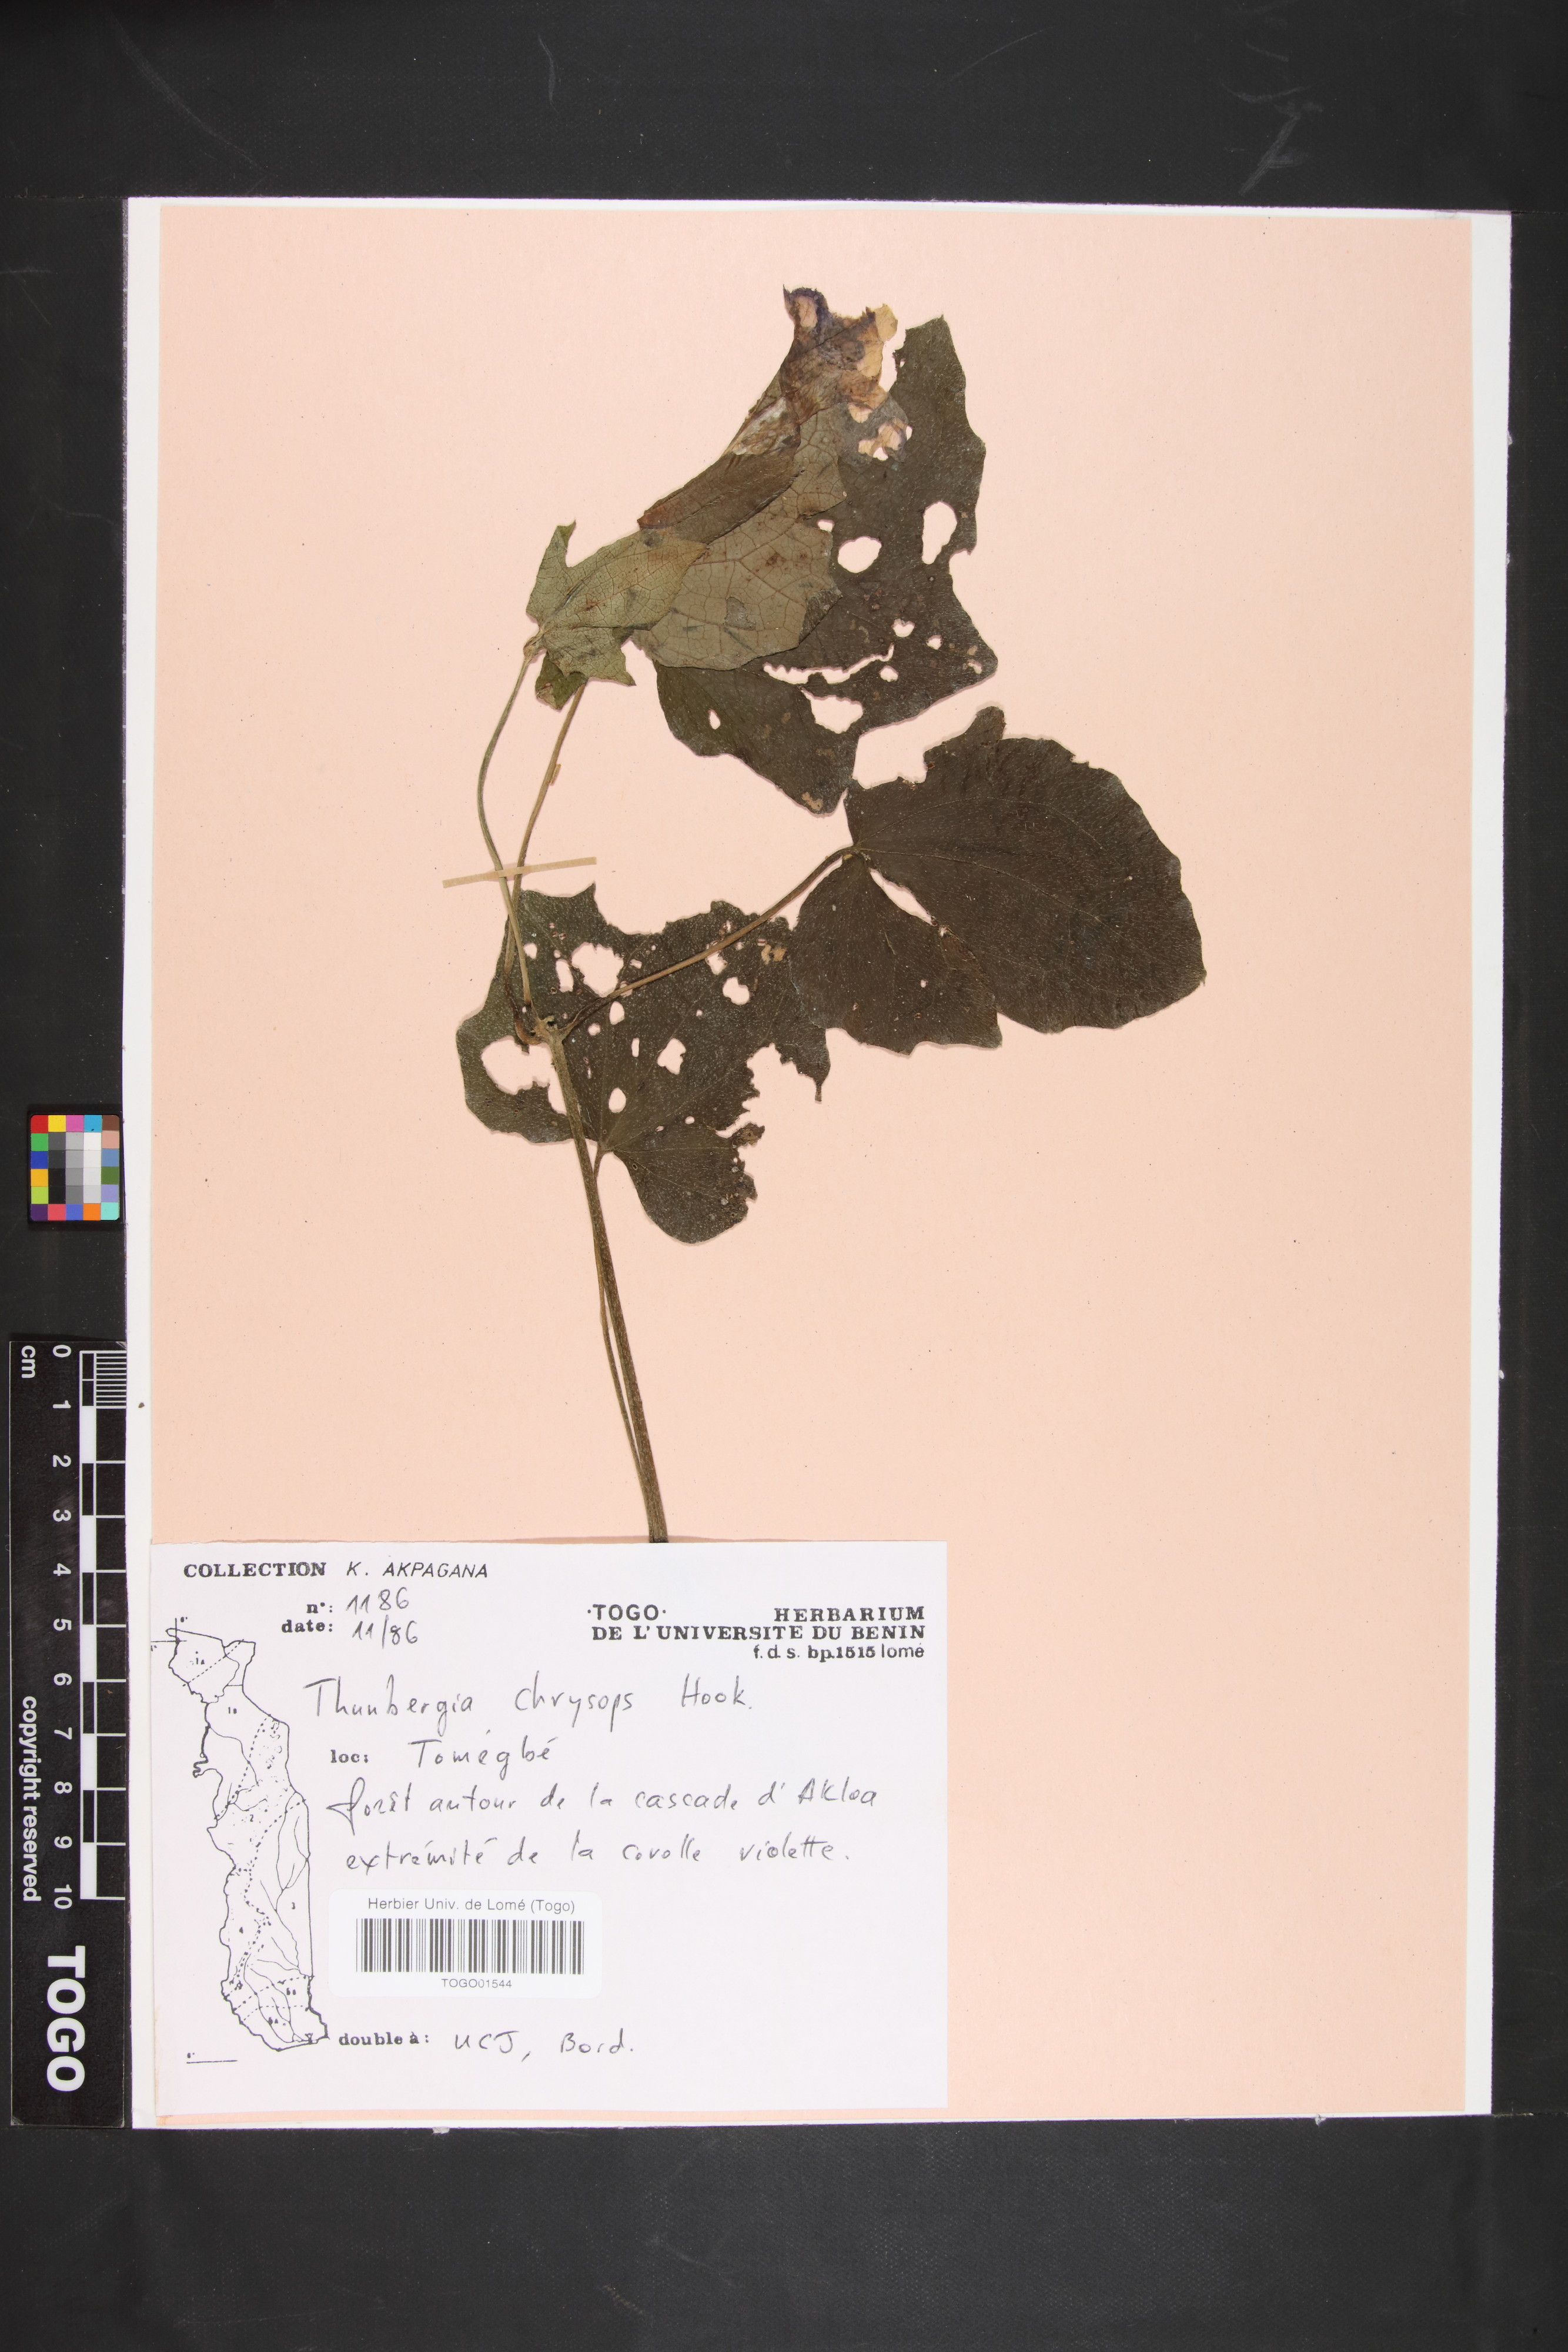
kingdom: Plantae
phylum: Tracheophyta
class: Magnoliopsida
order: Lamiales
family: Acanthaceae
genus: Thunbergia
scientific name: Thunbergia chrysops
